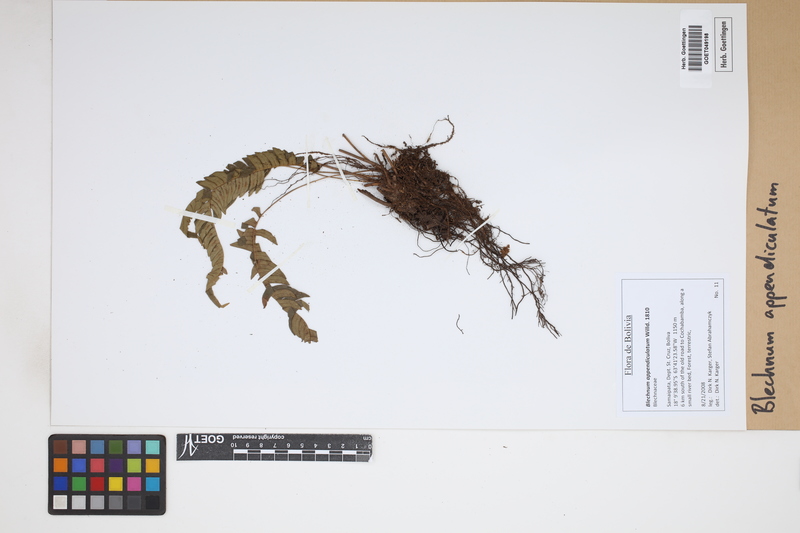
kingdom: Plantae
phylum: Tracheophyta
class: Polypodiopsida
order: Polypodiales
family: Blechnaceae
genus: Blechnum
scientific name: Blechnum appendiculatum
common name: Palm fern
